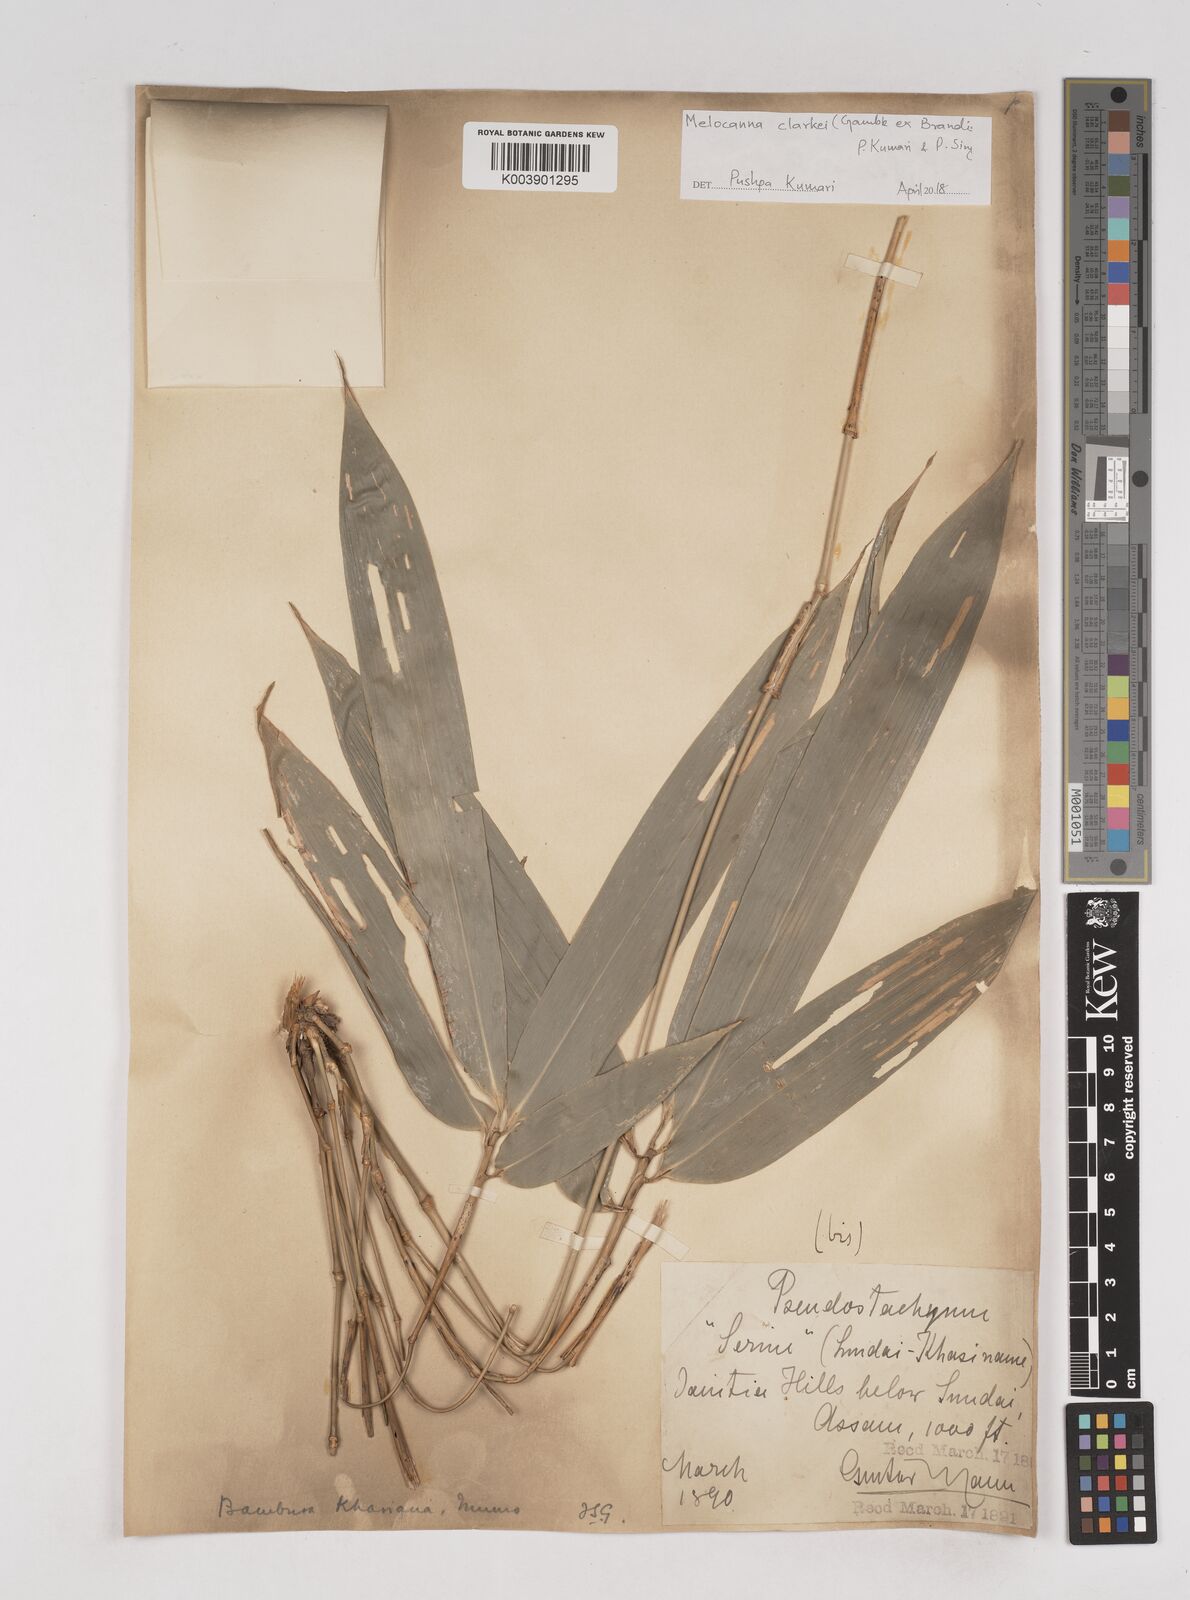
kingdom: Plantae
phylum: Tracheophyta
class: Liliopsida
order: Poales
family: Poaceae
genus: Melocanna
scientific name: Melocanna clarkei
